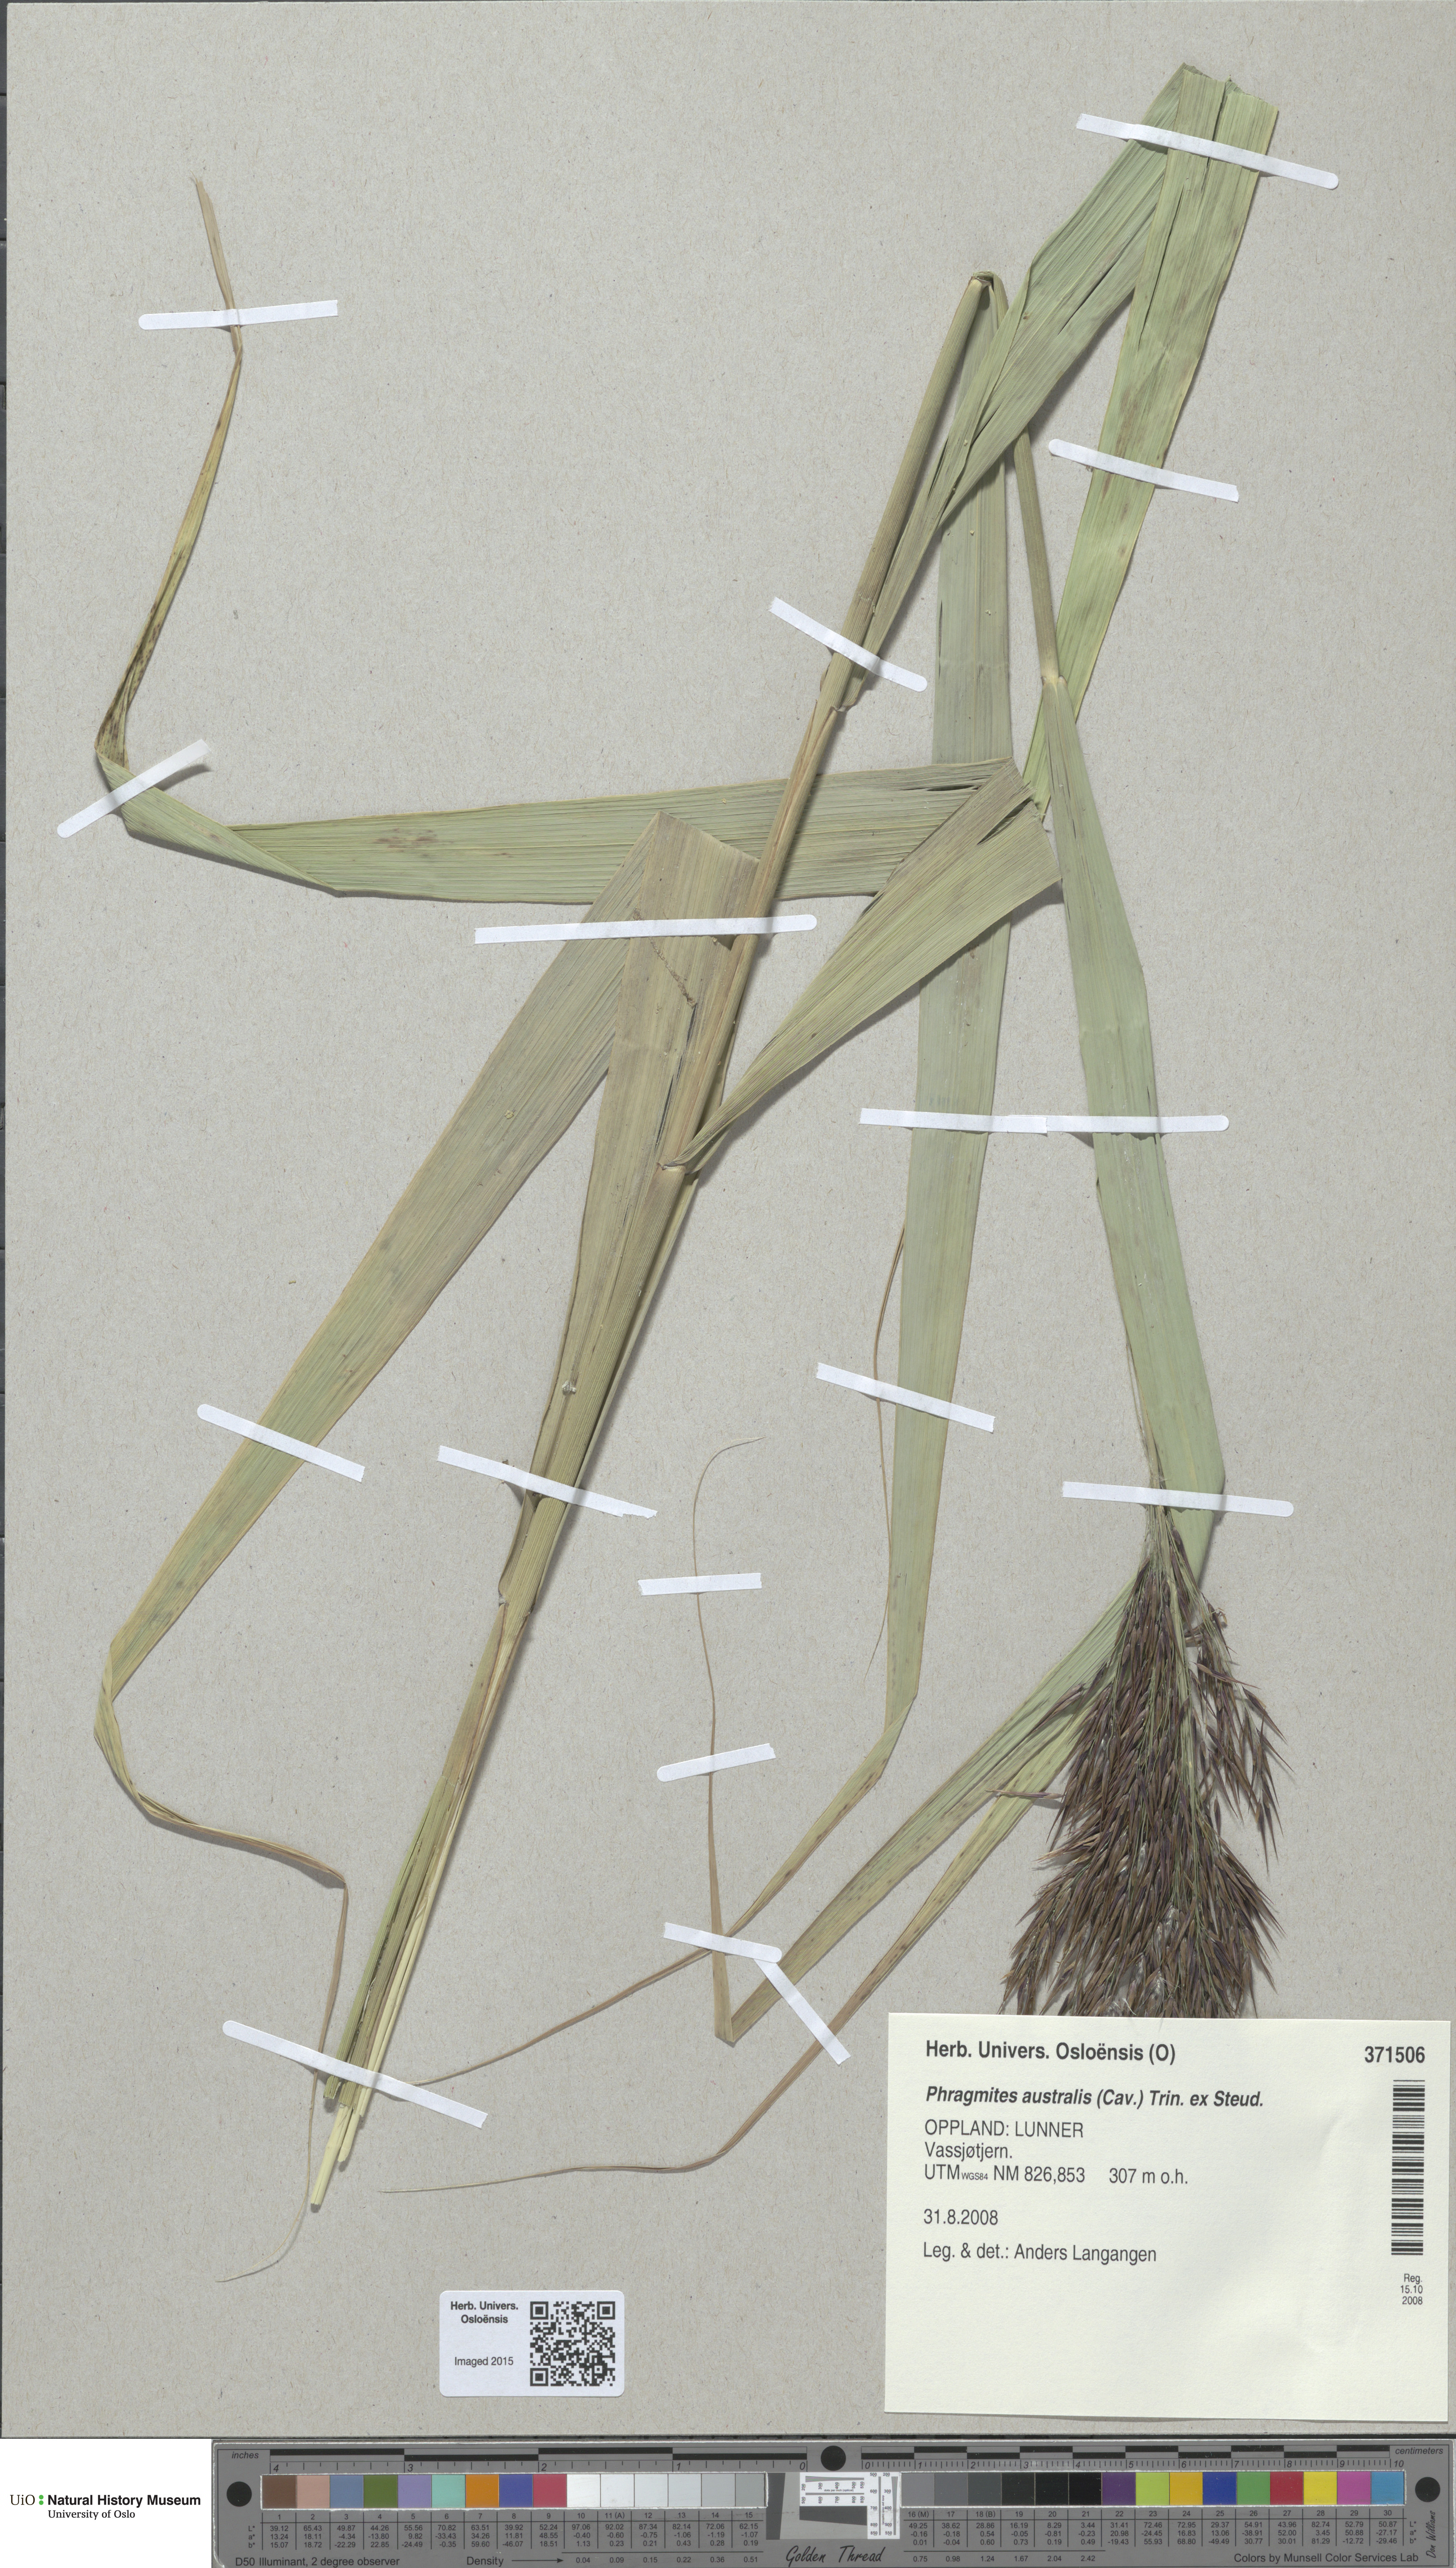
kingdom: Plantae
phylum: Tracheophyta
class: Liliopsida
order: Poales
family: Poaceae
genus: Phragmites
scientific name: Phragmites australis
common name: Common reed
